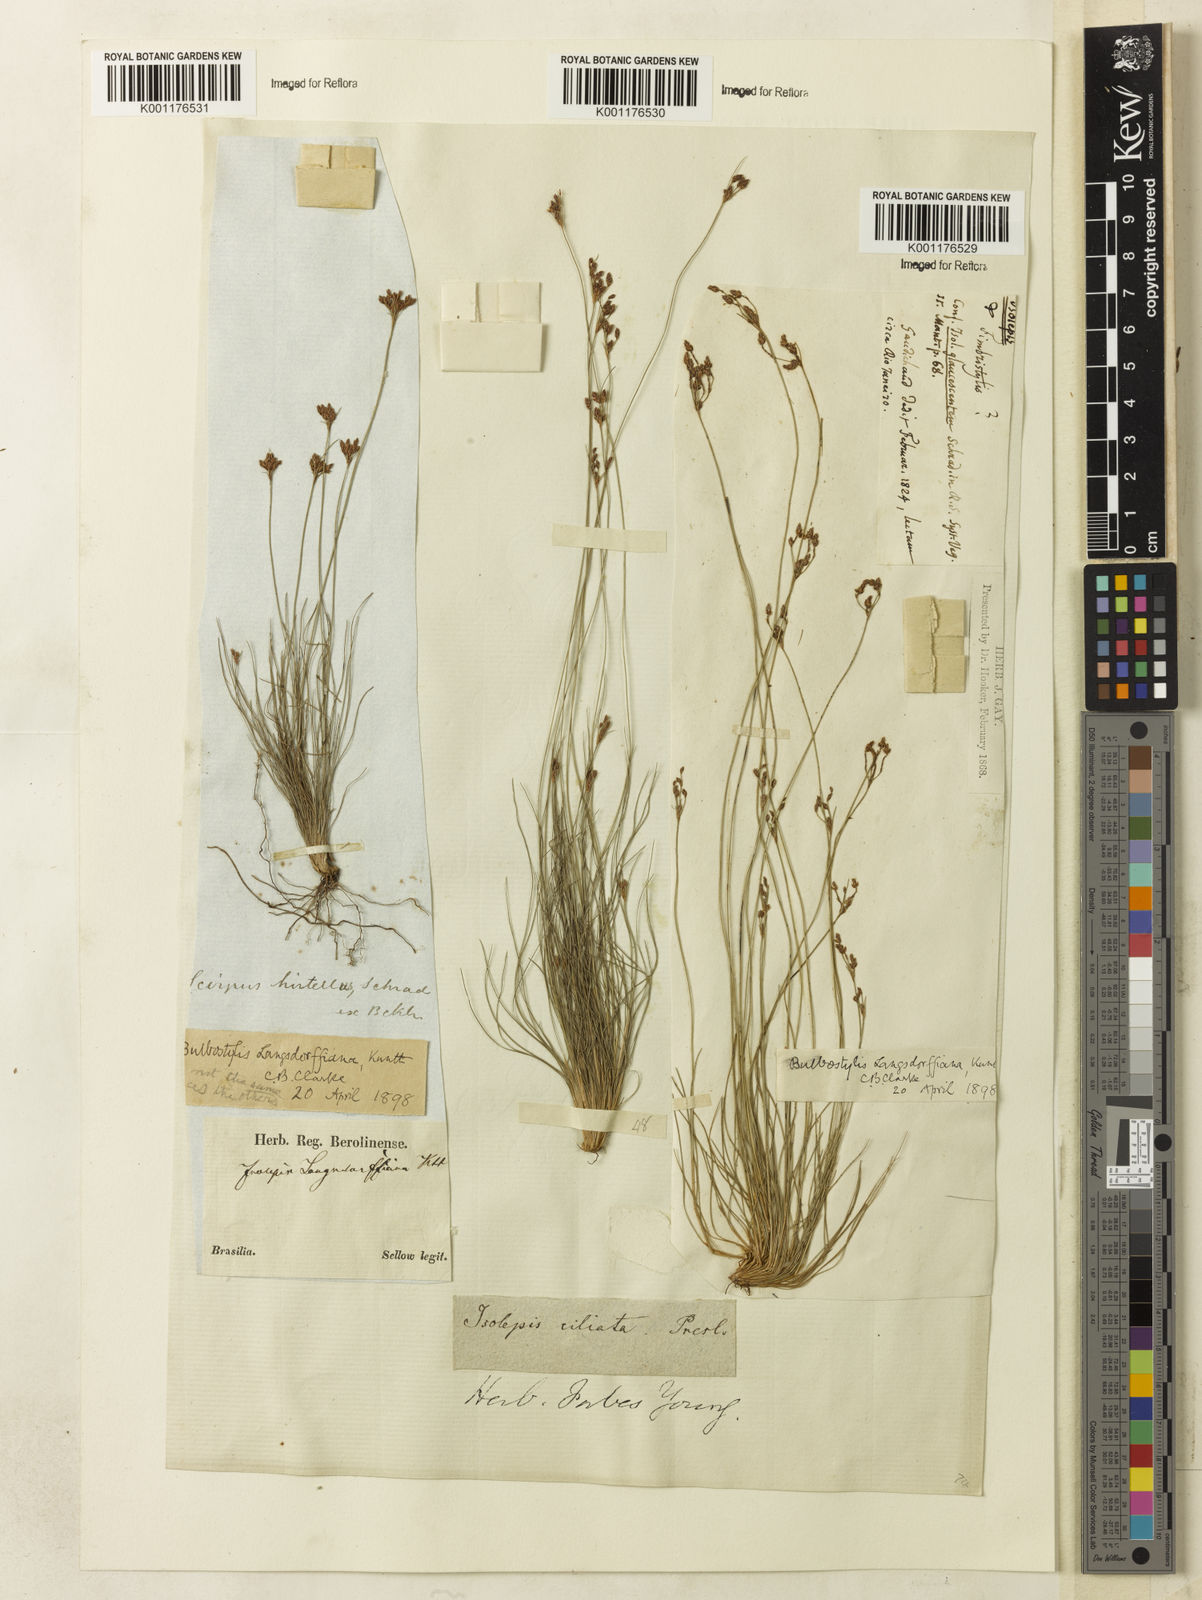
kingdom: Plantae
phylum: Tracheophyta
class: Liliopsida
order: Poales
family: Cyperaceae
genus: Bulbostylis
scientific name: Bulbostylis juncoides
